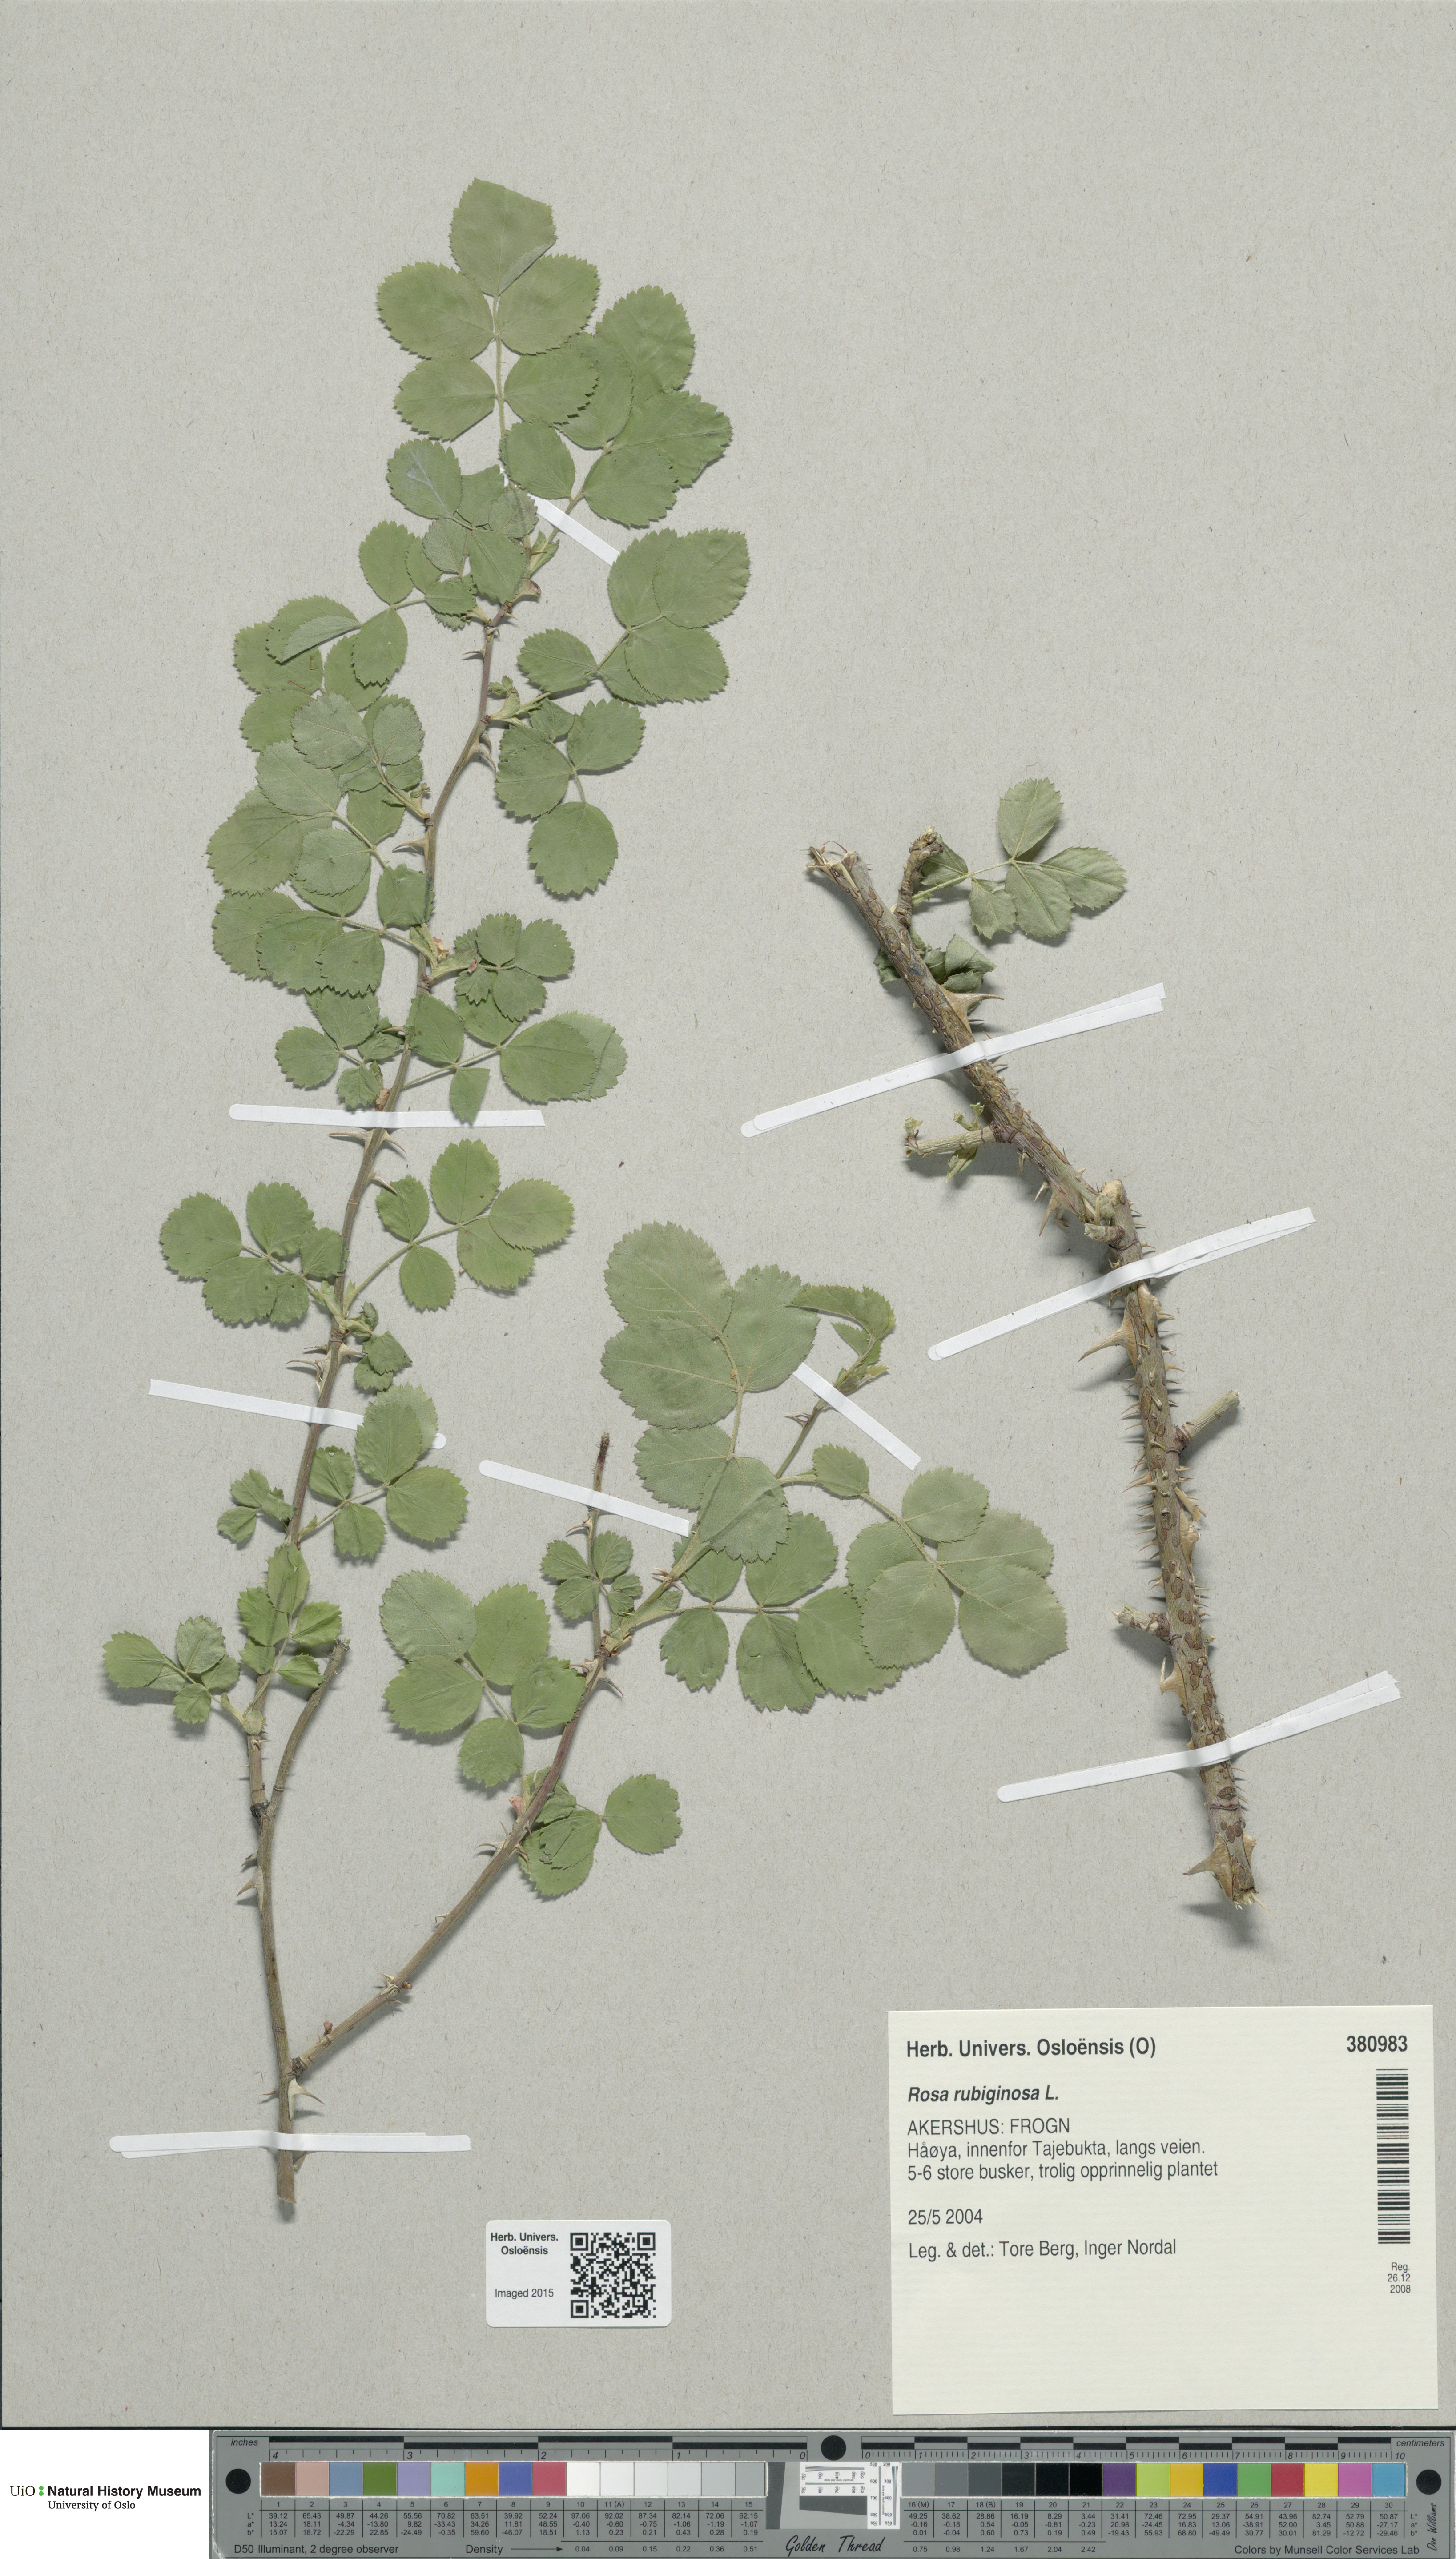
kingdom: Plantae
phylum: Tracheophyta
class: Magnoliopsida
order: Rosales
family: Rosaceae
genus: Rosa
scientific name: Rosa rubiginosa
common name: Sweet-briar
